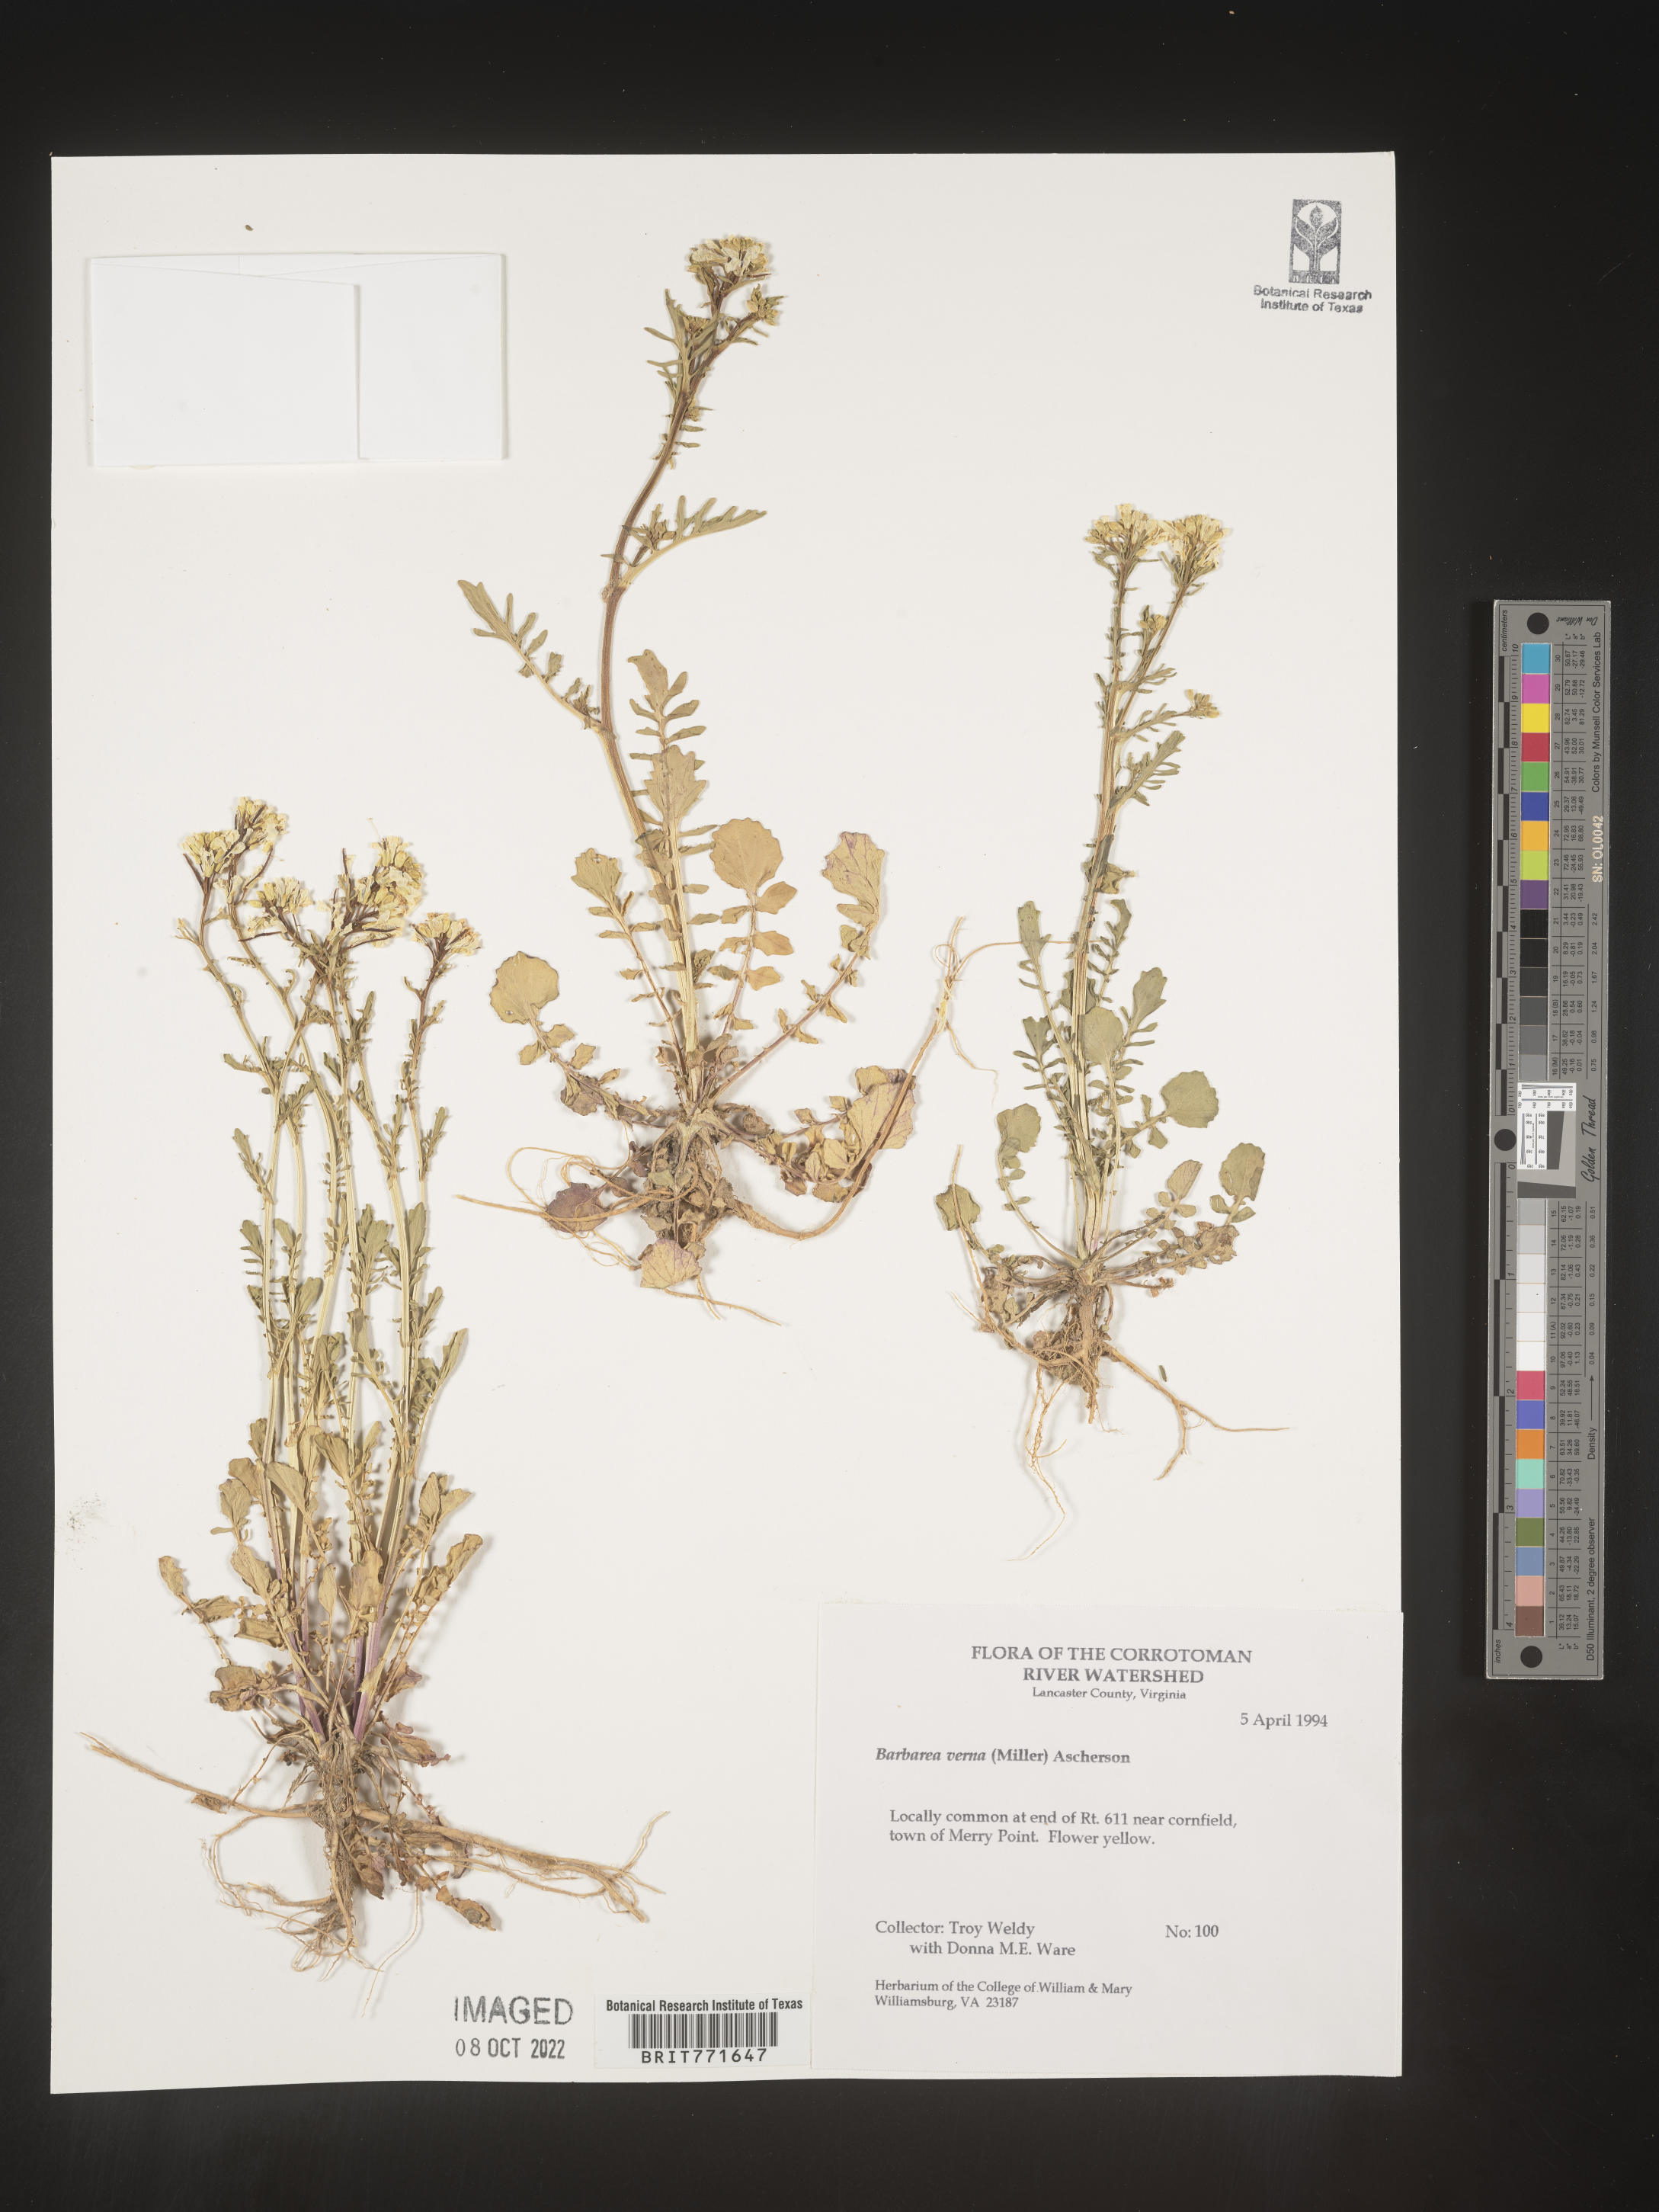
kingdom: Plantae
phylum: Tracheophyta
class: Magnoliopsida
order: Brassicales
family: Brassicaceae
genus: Barbarea
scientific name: Barbarea verna
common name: American cress
